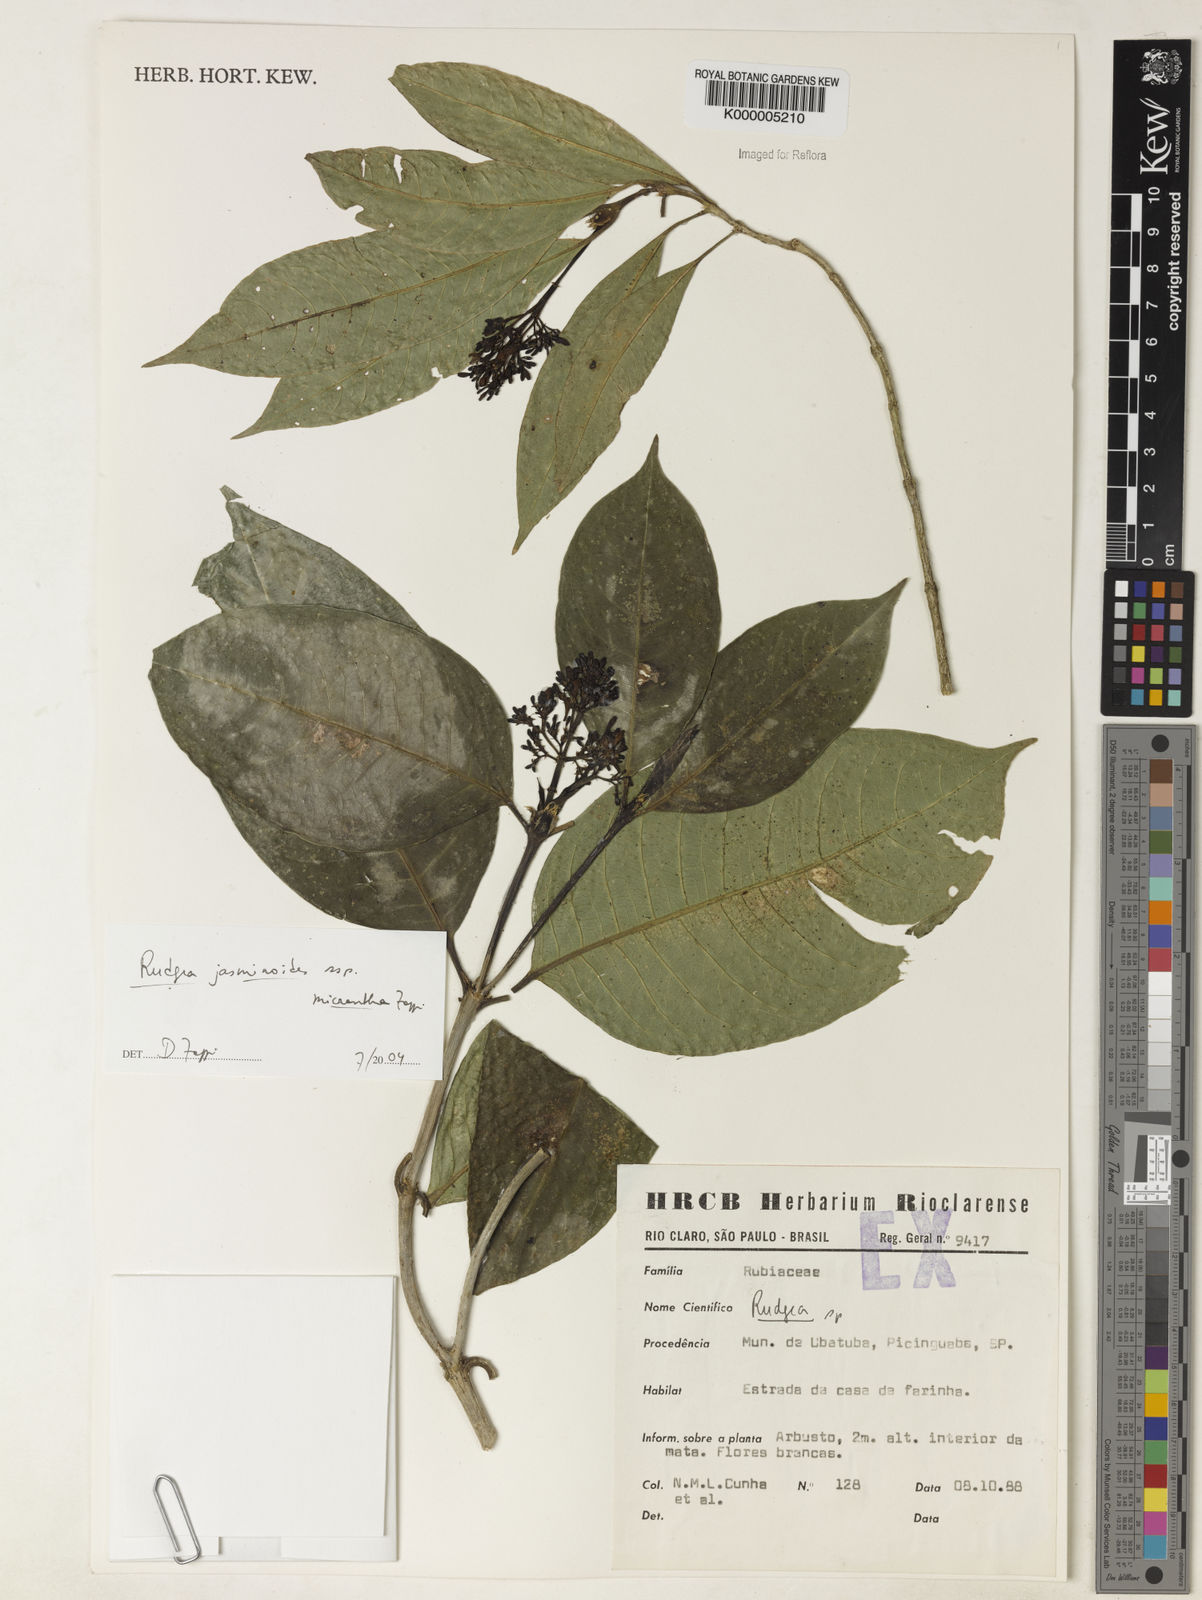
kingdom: Plantae
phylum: Tracheophyta
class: Magnoliopsida
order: Gentianales
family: Rubiaceae
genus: Rudgea
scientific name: Rudgea jasminoides
